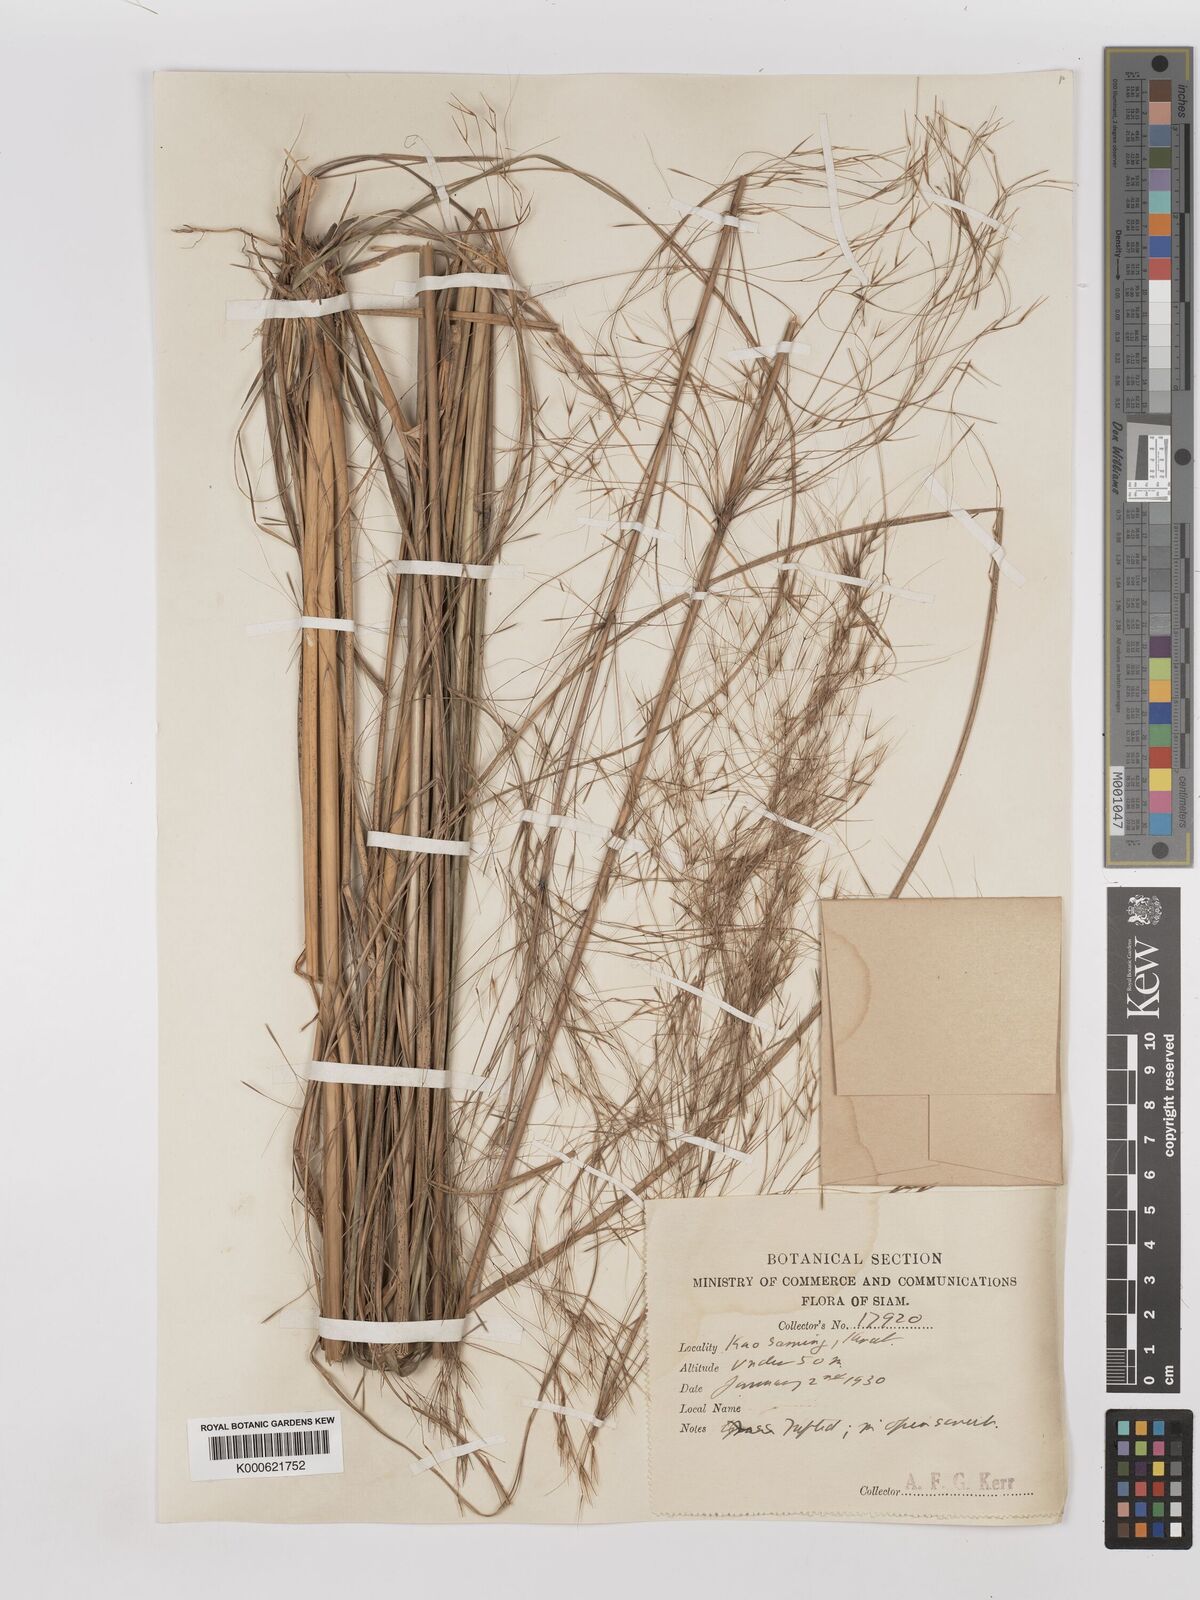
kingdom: Plantae
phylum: Tracheophyta
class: Liliopsida
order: Poales
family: Poaceae
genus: Aristida
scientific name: Aristida culionensis
